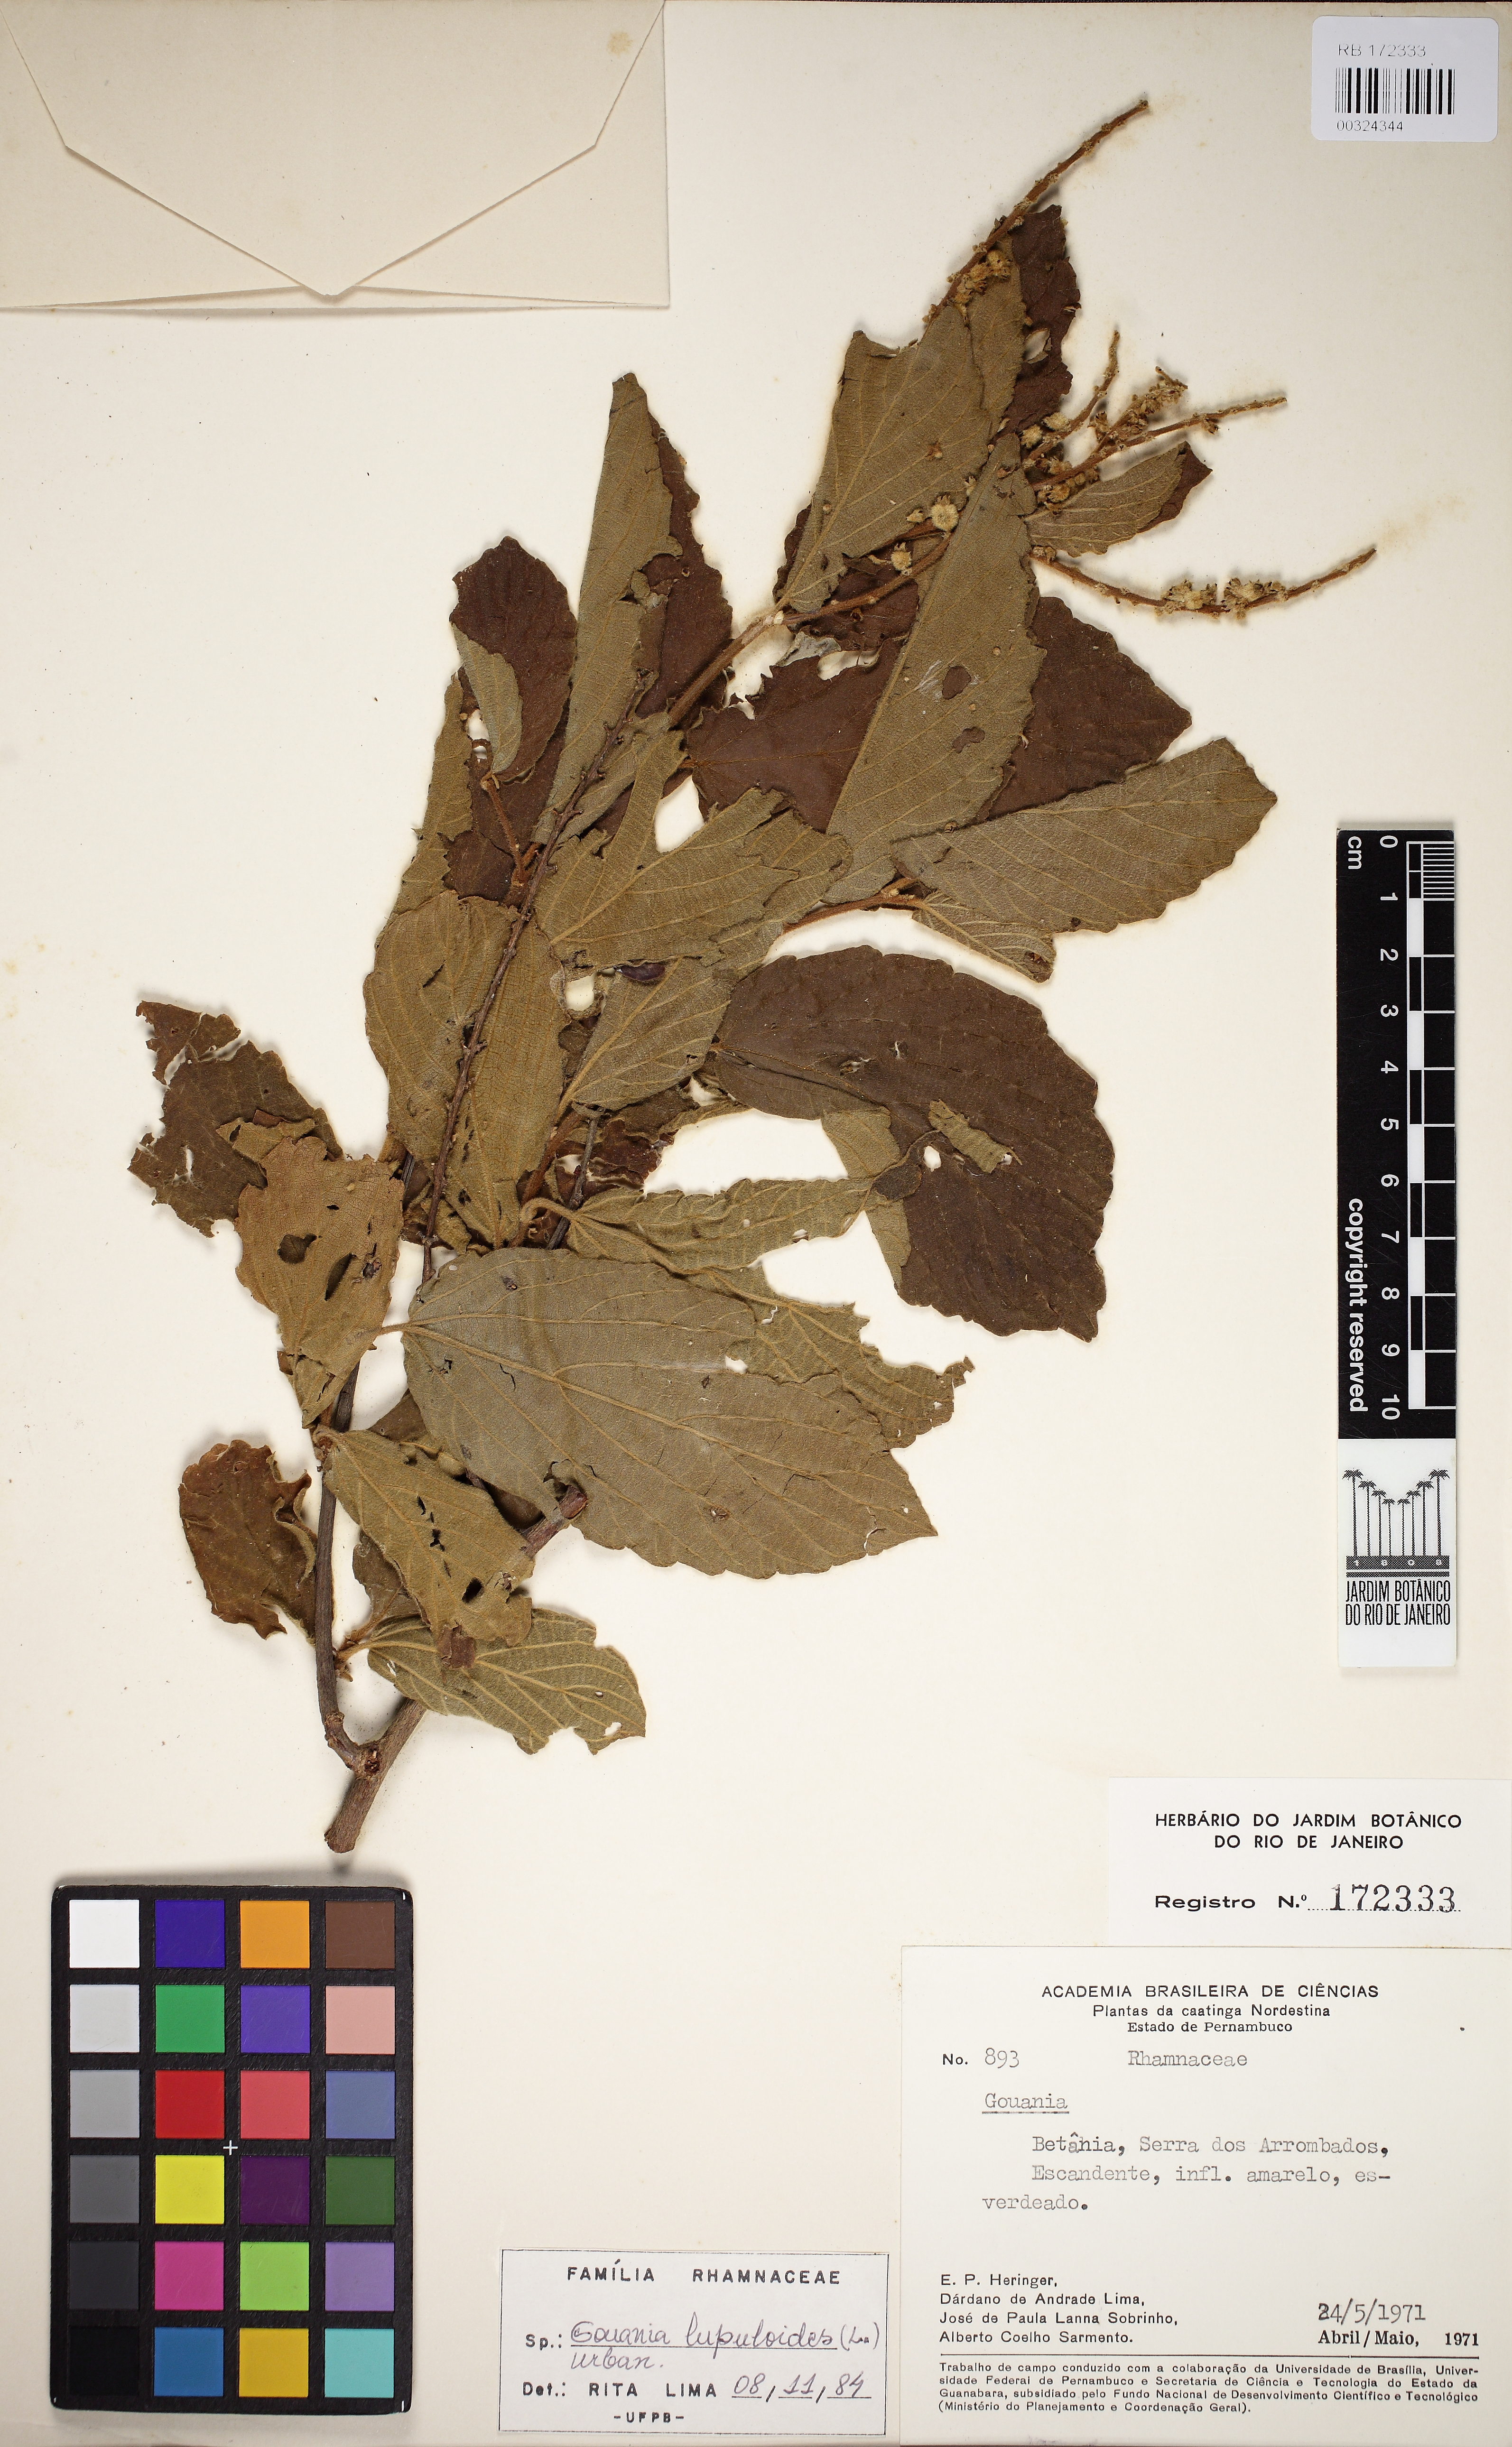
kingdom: Plantae
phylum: Tracheophyta
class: Magnoliopsida
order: Rosales
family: Rhamnaceae
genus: Gouania
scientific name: Gouania lupuloides
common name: Chewstick
